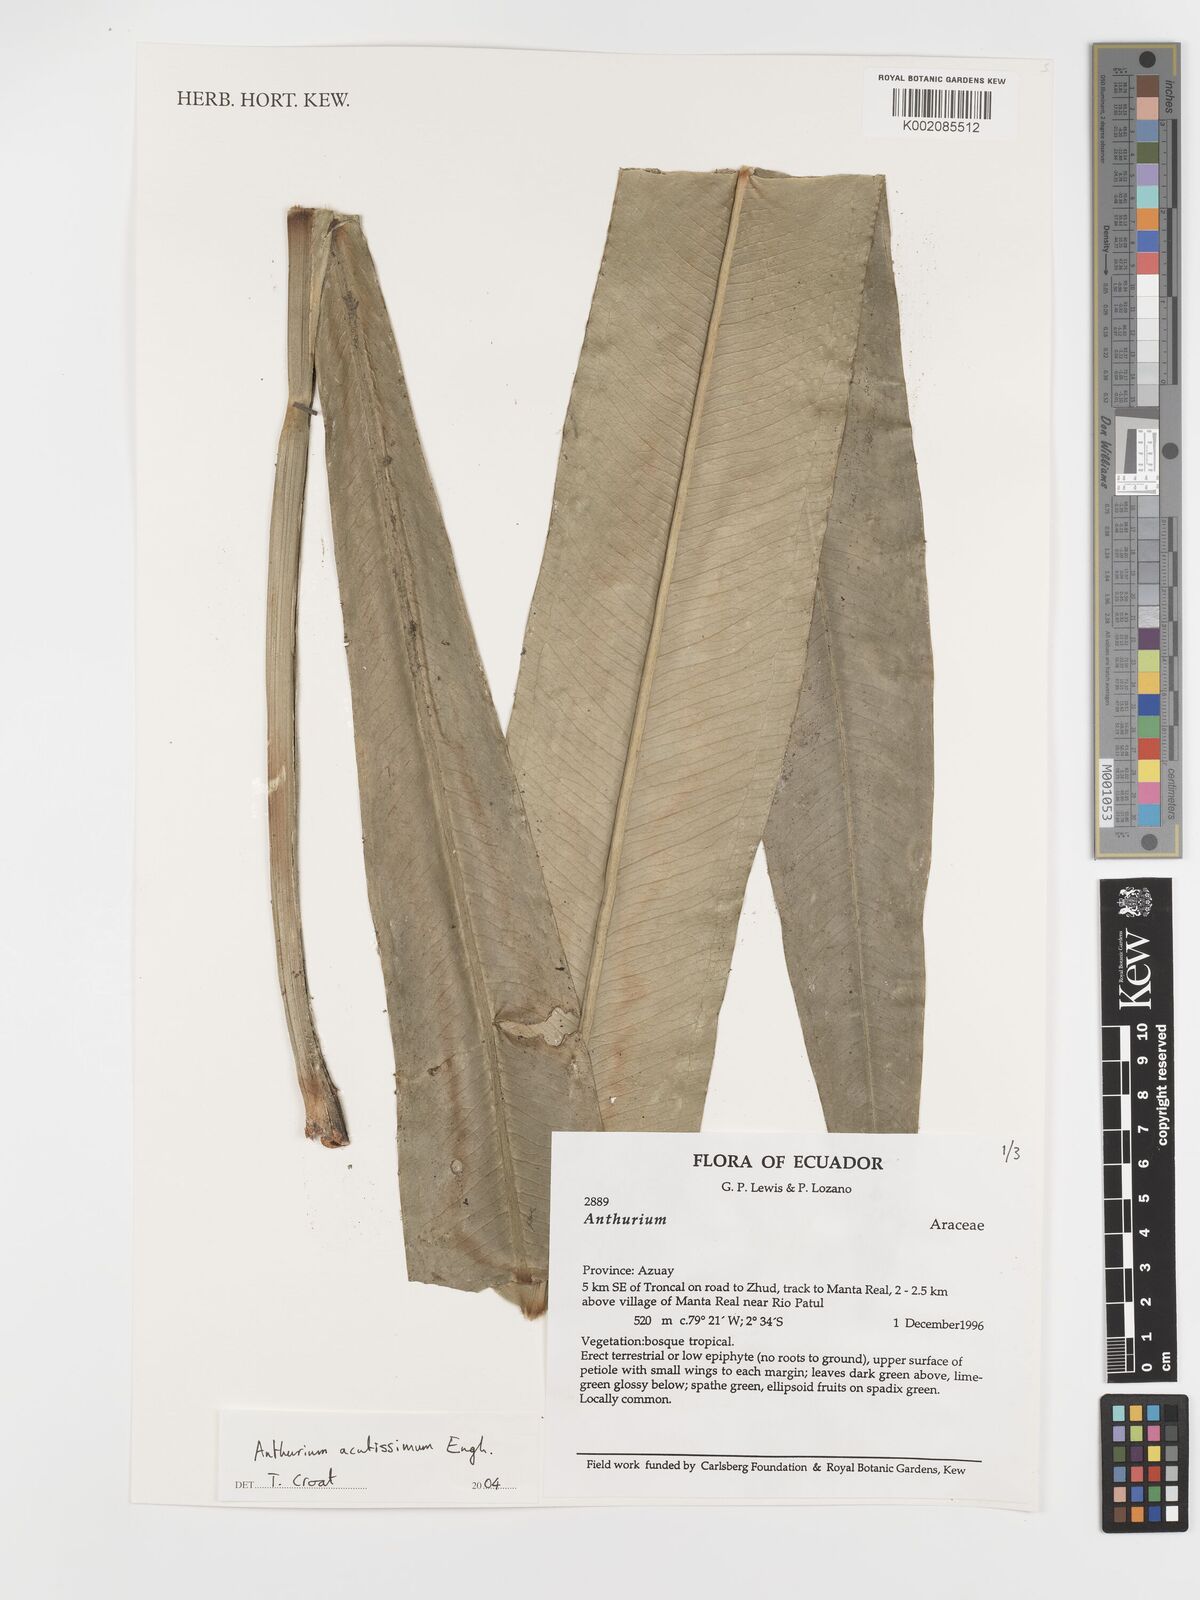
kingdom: Plantae
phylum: Tracheophyta
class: Liliopsida
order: Alismatales
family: Araceae
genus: Anthurium
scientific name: Anthurium acutissimum
